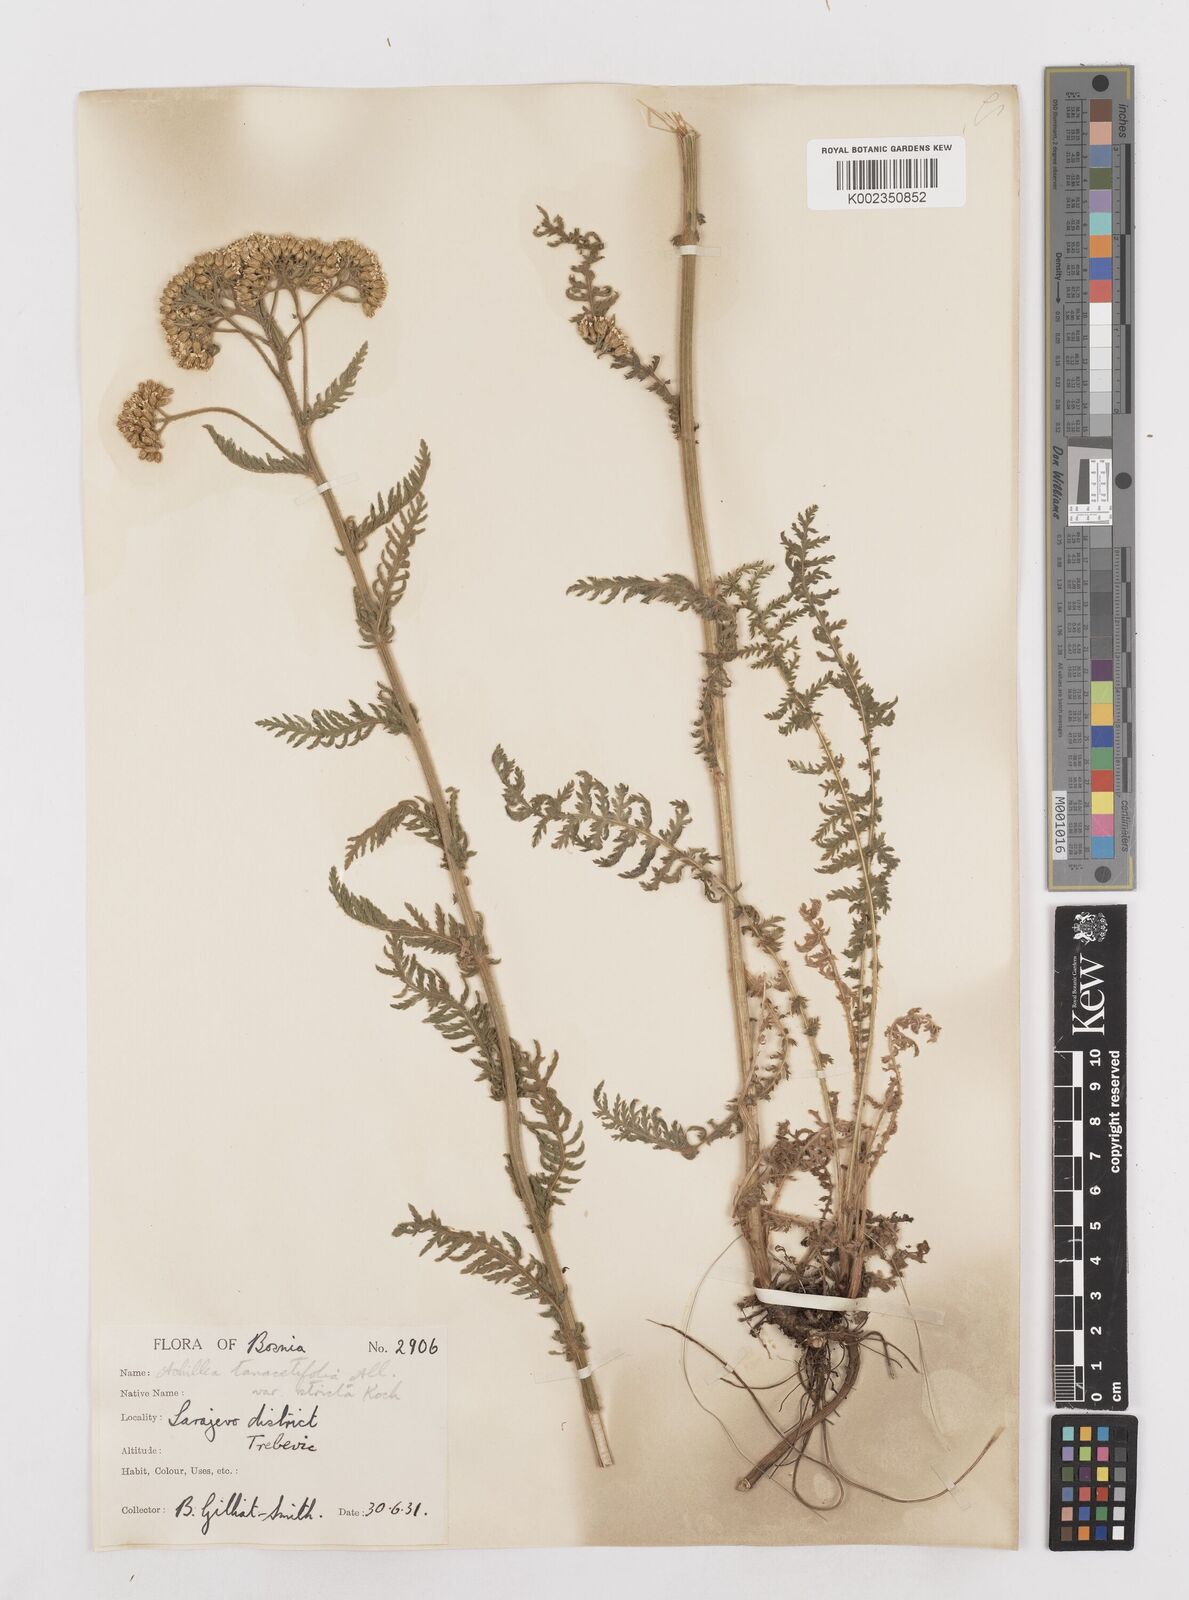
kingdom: Plantae
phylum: Tracheophyta
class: Magnoliopsida
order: Asterales
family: Asteraceae
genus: Achillea
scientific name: Achillea distans
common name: Tall yarrow
